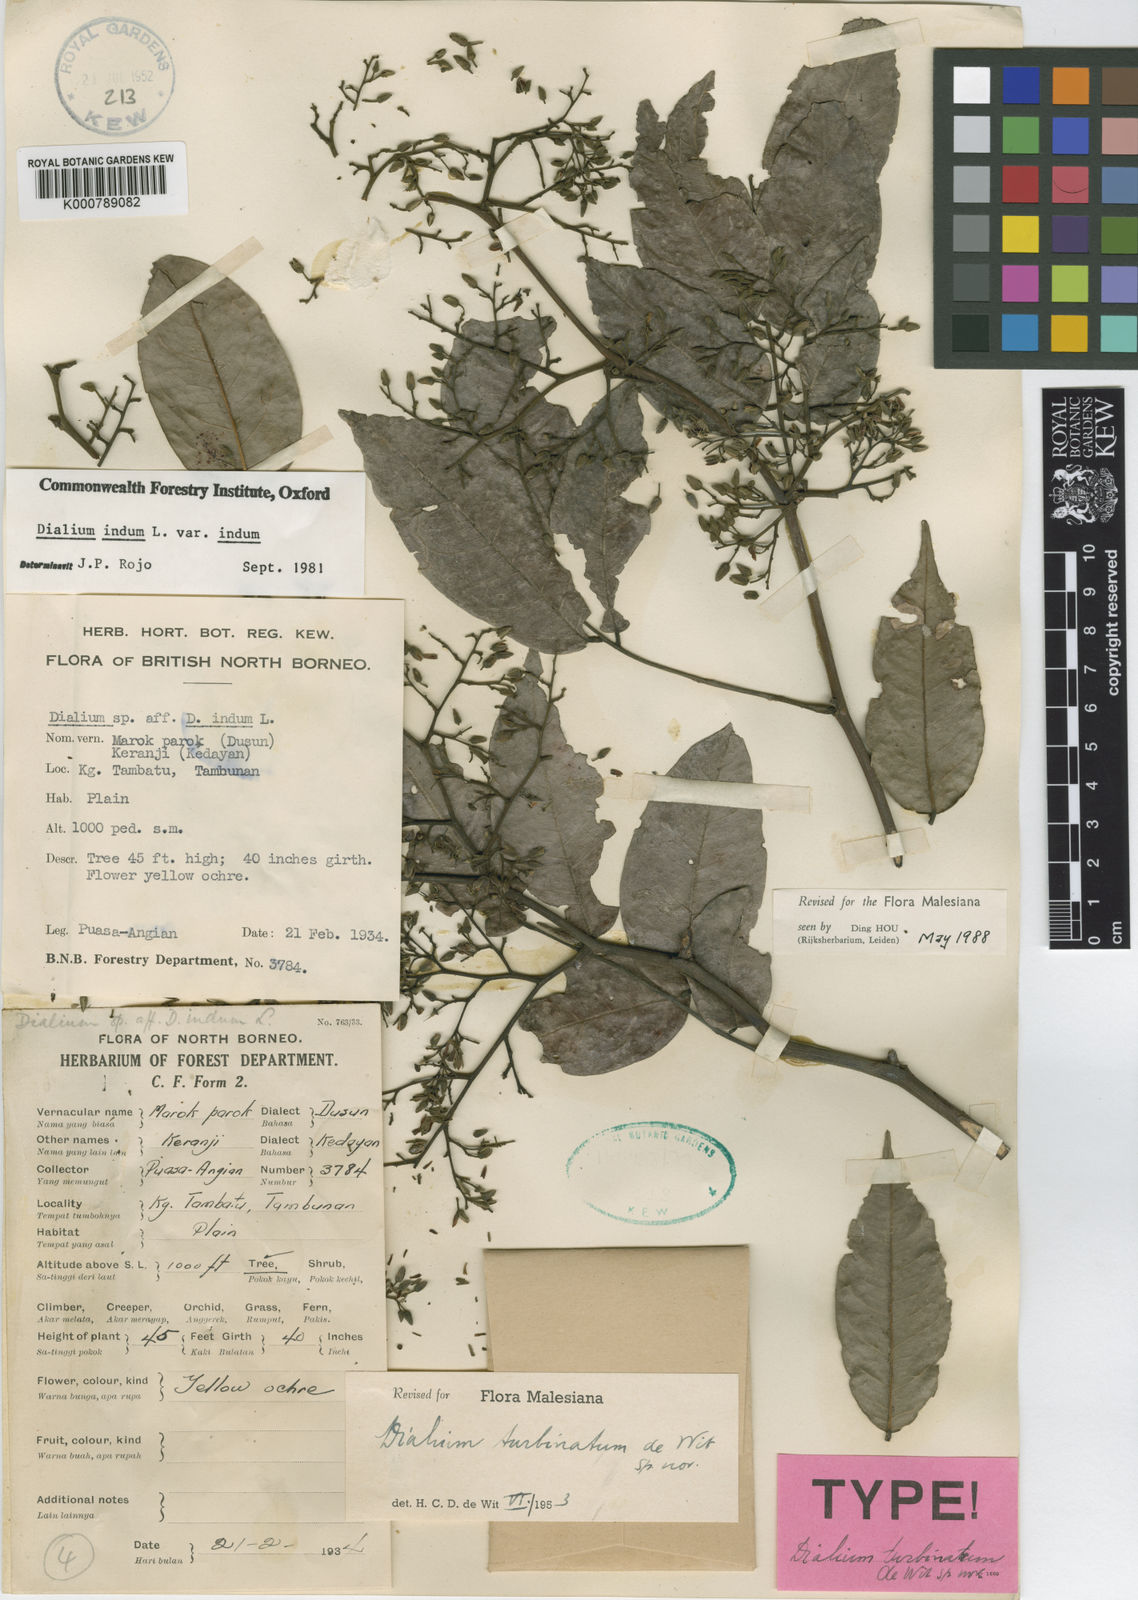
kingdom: Plantae
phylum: Tracheophyta
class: Magnoliopsida
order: Fabales
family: Fabaceae
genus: Dialium
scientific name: Dialium indum
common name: Tamarind-plum
